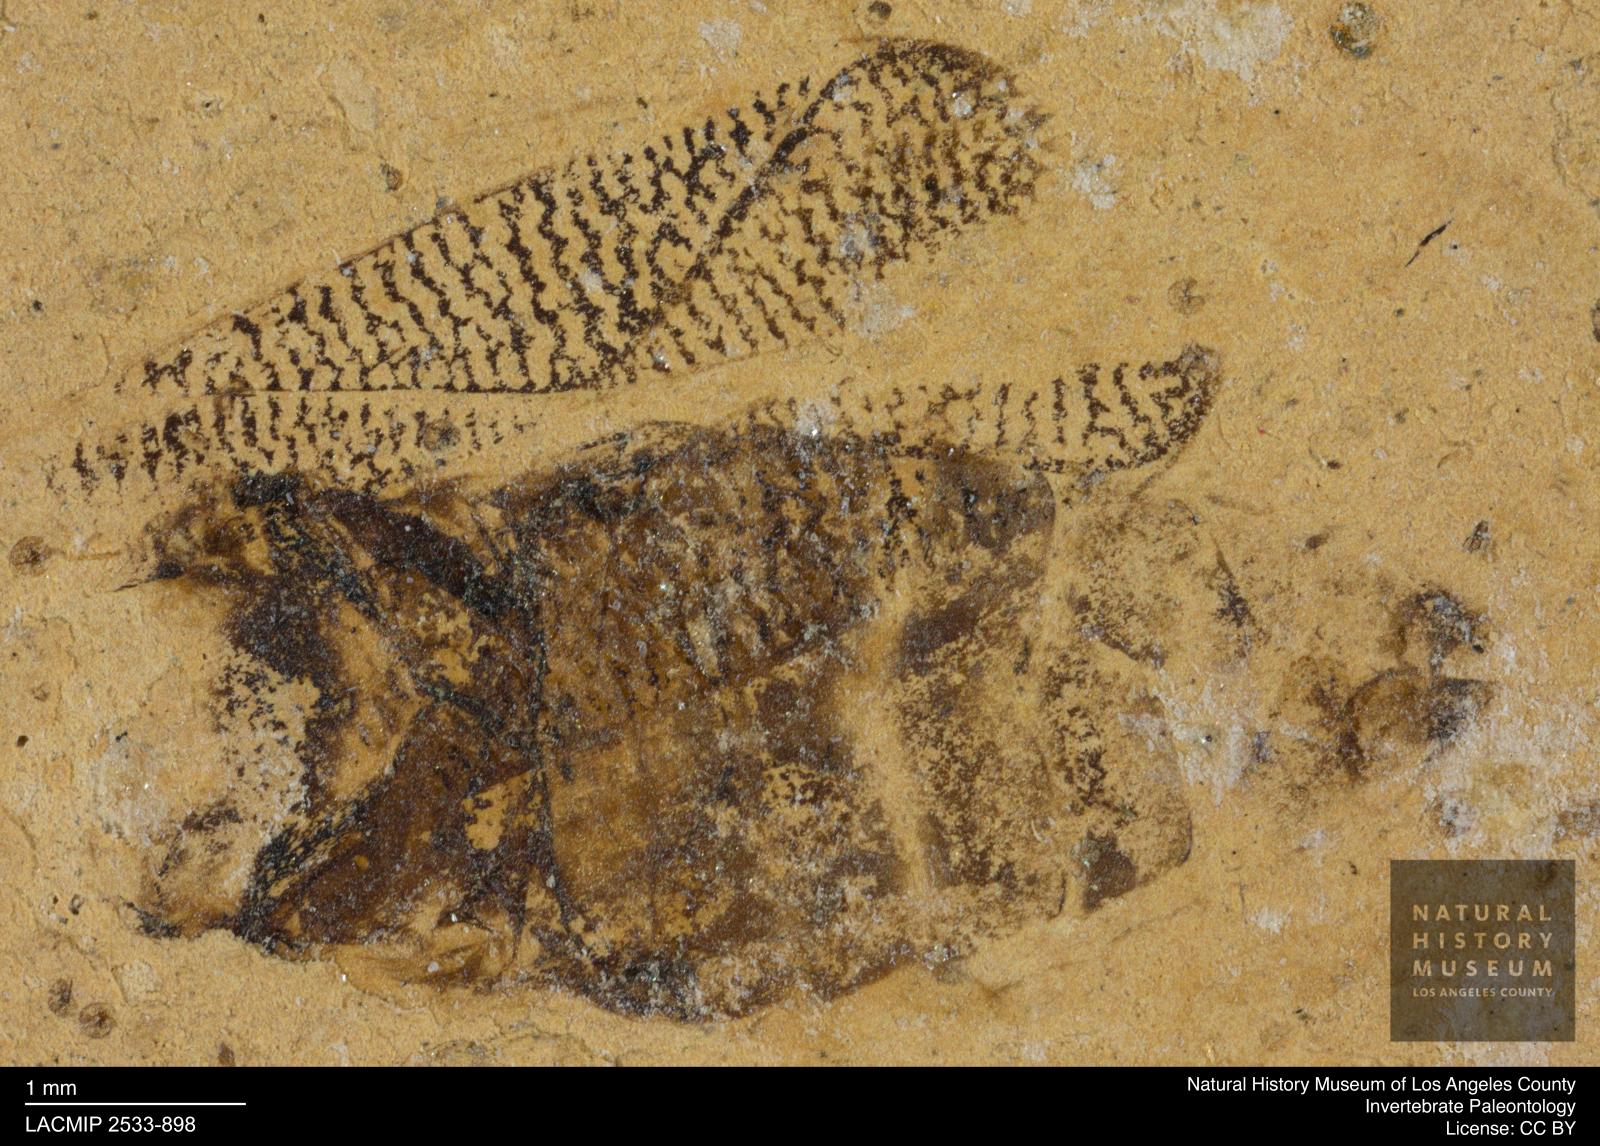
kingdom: Animalia
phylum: Arthropoda
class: Insecta
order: Hemiptera
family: Corixidae
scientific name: Corixidae
